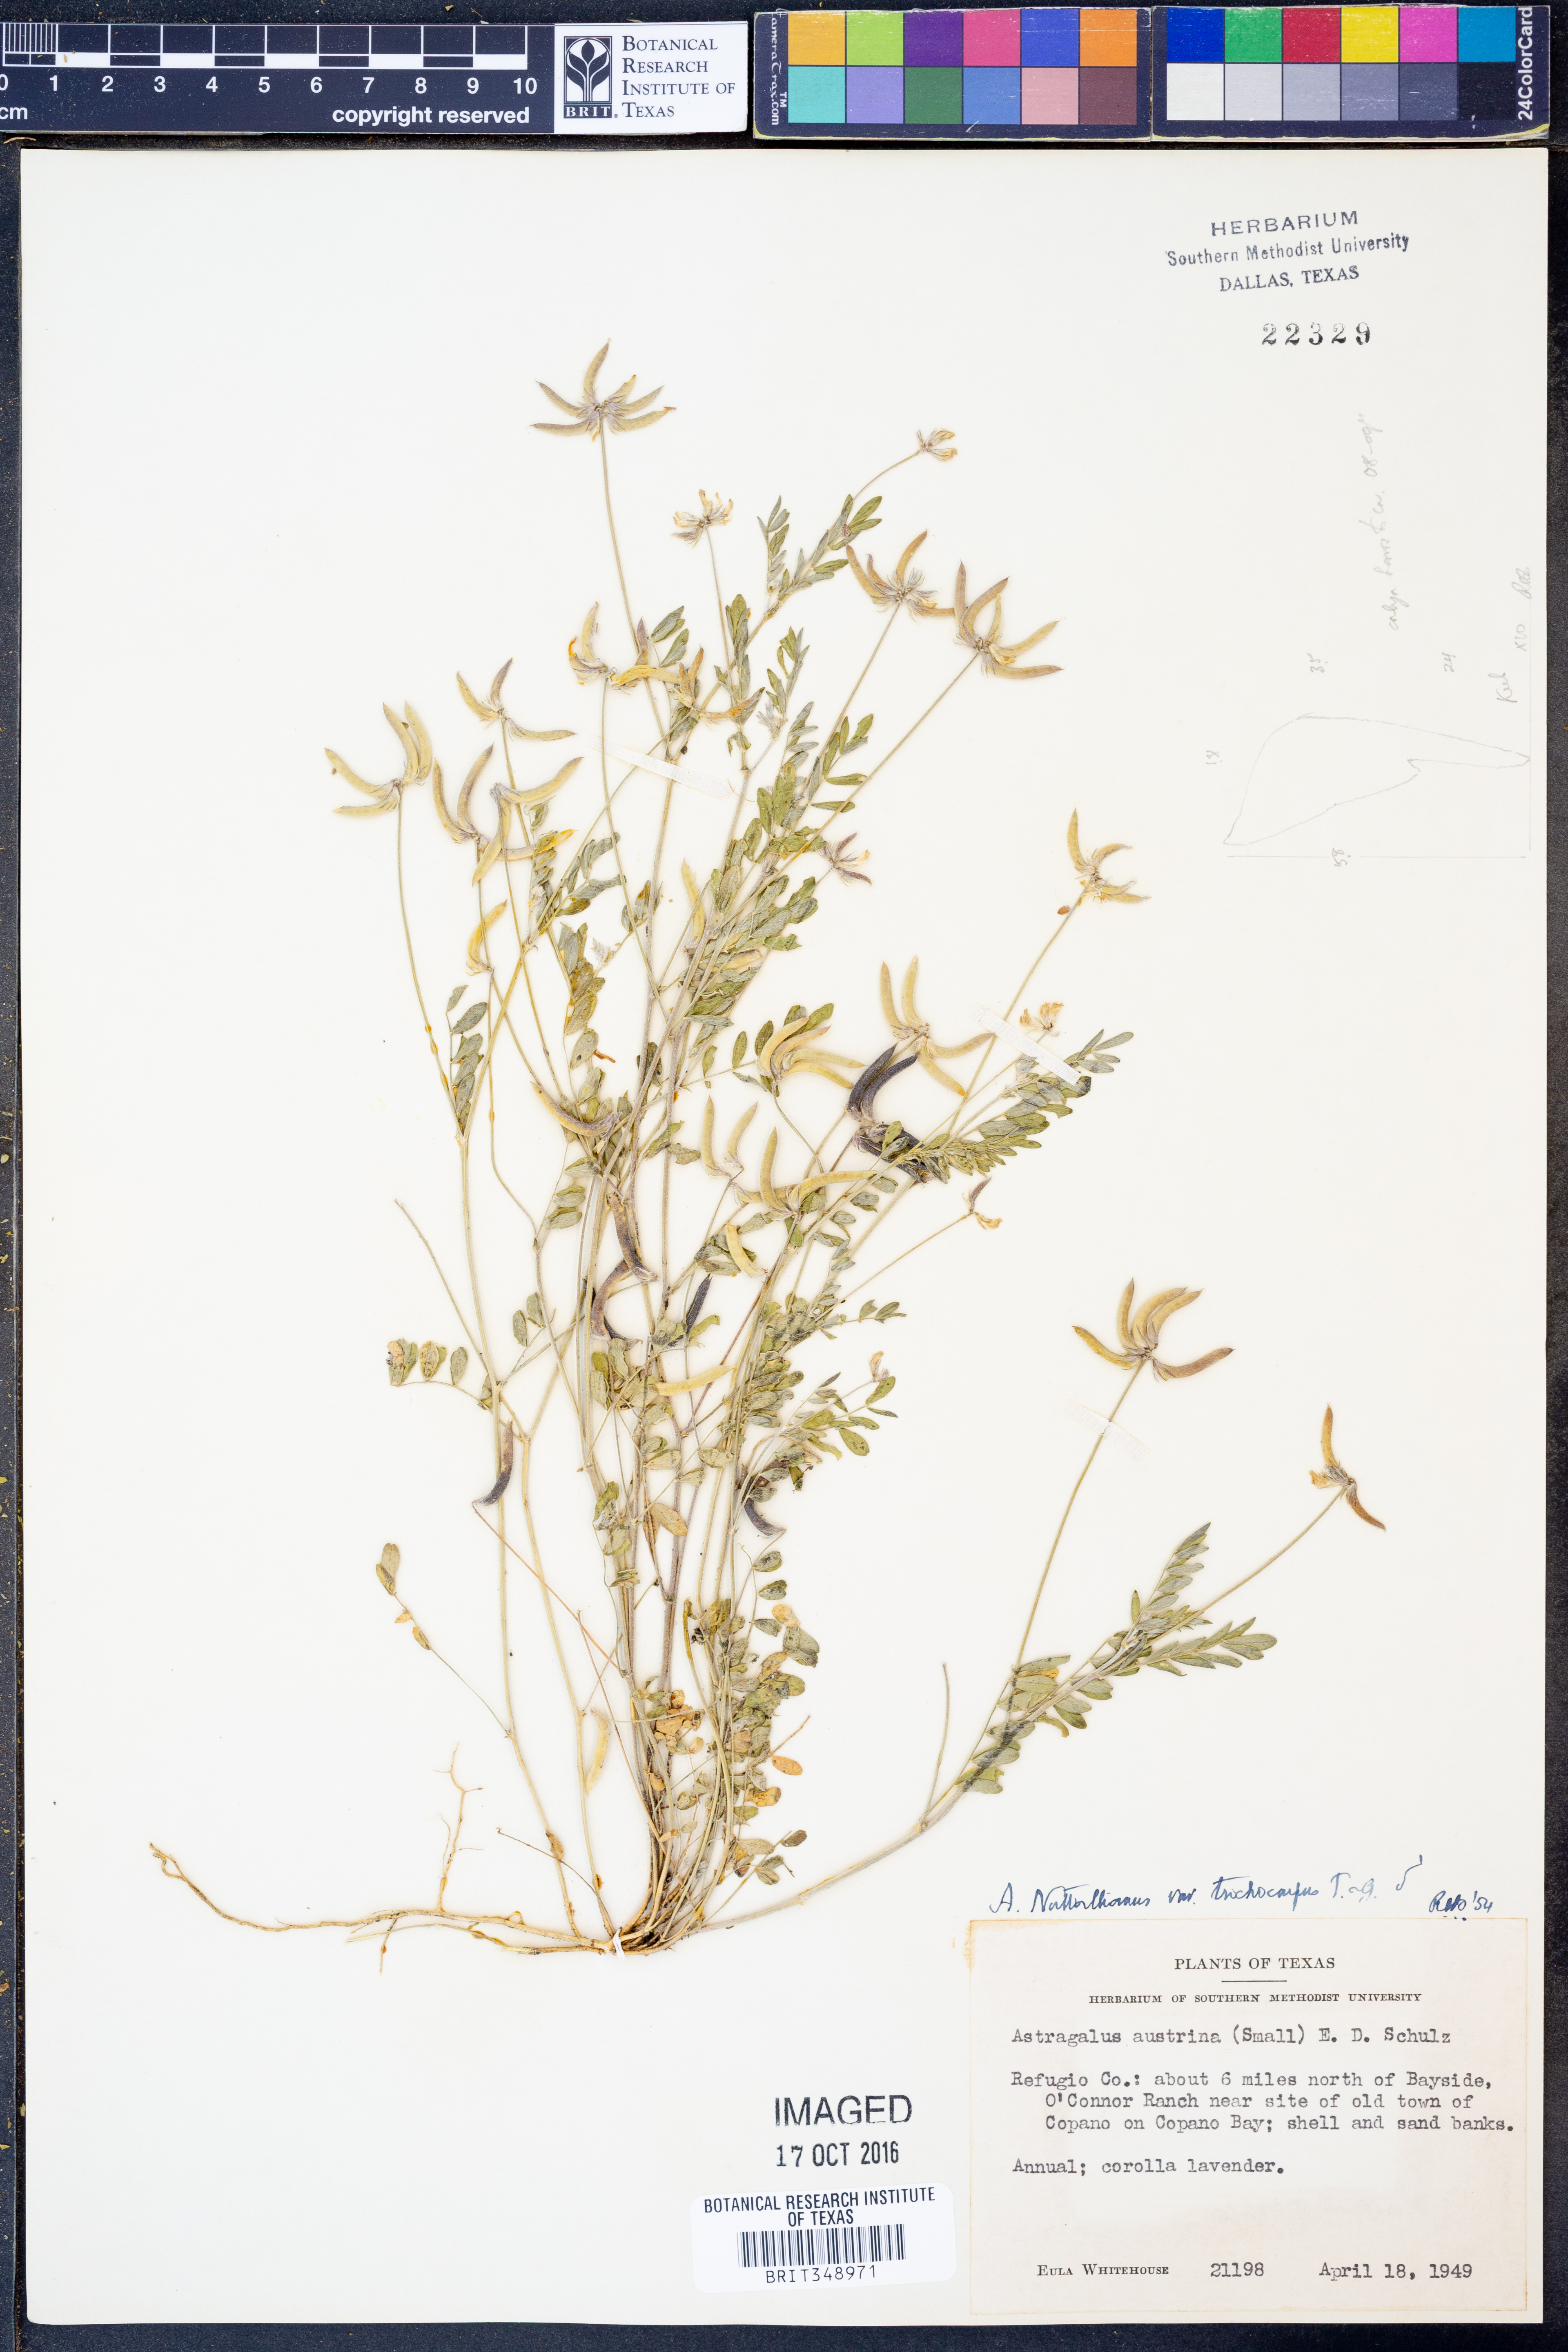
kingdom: Plantae
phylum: Tracheophyta
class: Magnoliopsida
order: Fabales
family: Fabaceae
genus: Astragalus
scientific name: Astragalus nuttallianus
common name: Smallflowered milkvetch
